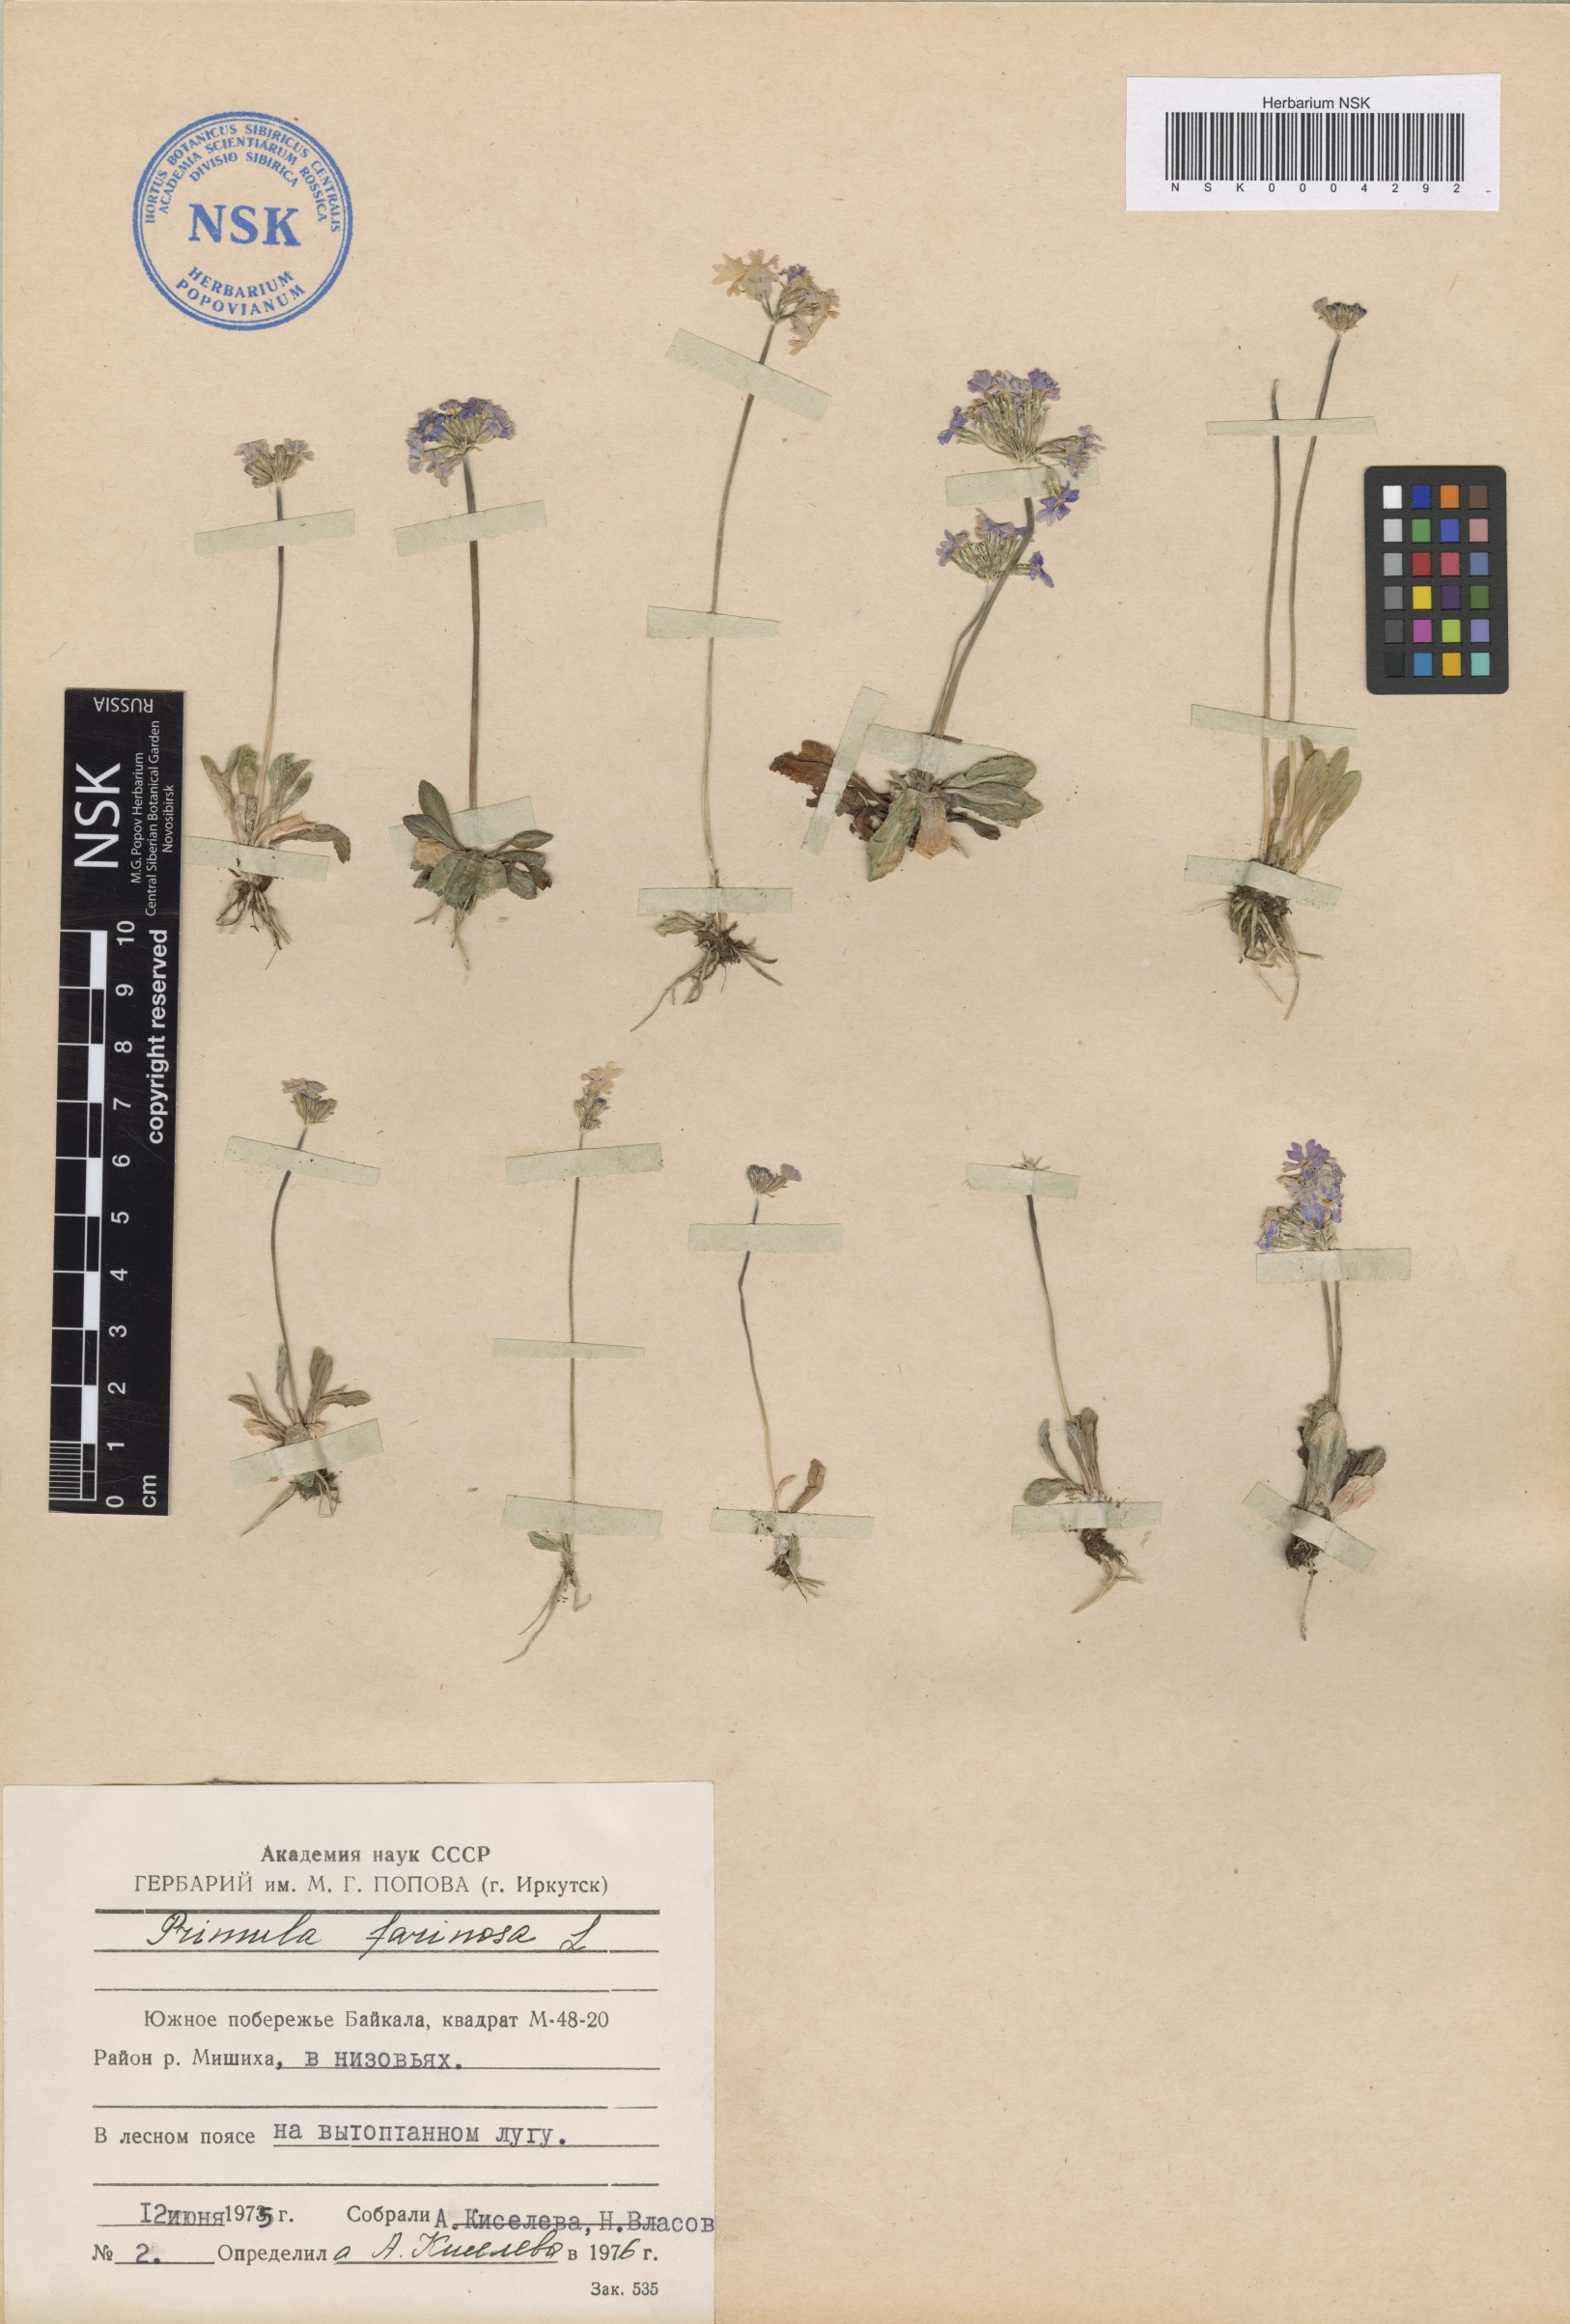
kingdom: Plantae
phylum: Tracheophyta
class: Magnoliopsida
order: Ericales
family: Primulaceae
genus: Primula
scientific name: Primula farinosa
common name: Bird's-eye primrose
